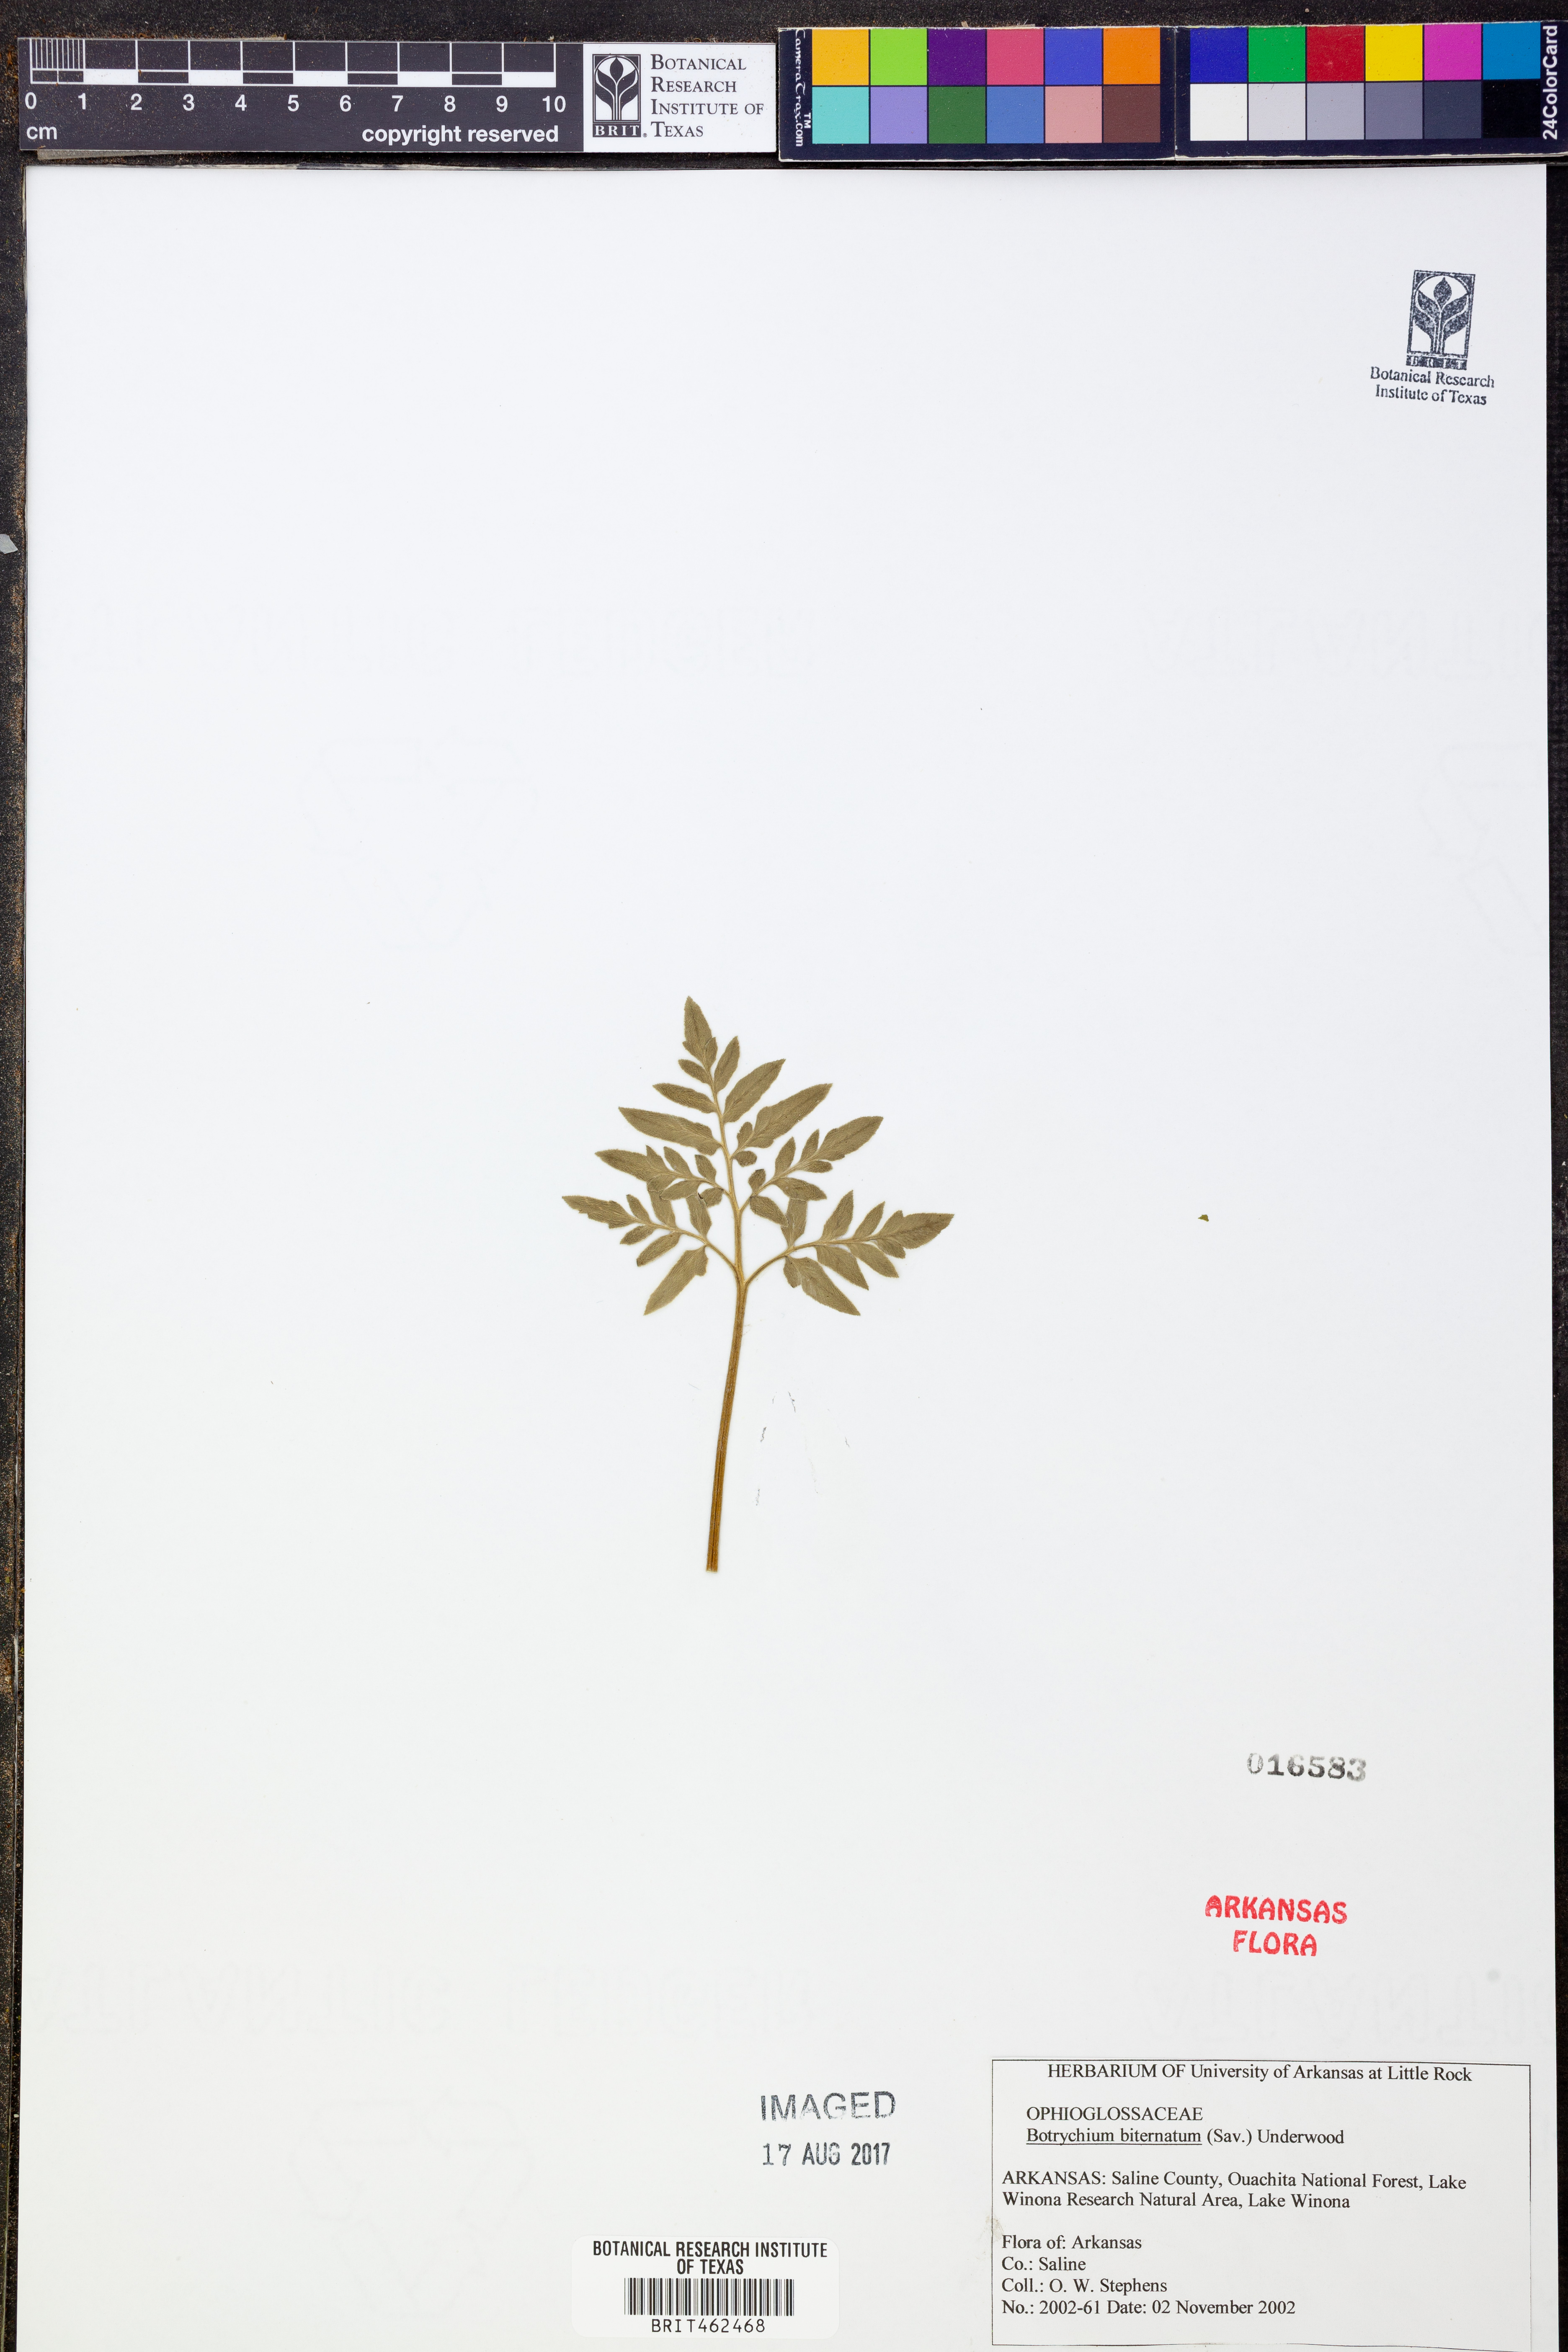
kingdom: Plantae
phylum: Tracheophyta
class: Polypodiopsida
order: Ophioglossales
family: Ophioglossaceae
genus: Sceptridium
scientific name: Sceptridium biternatum
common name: Sparse-lobed grapefern
